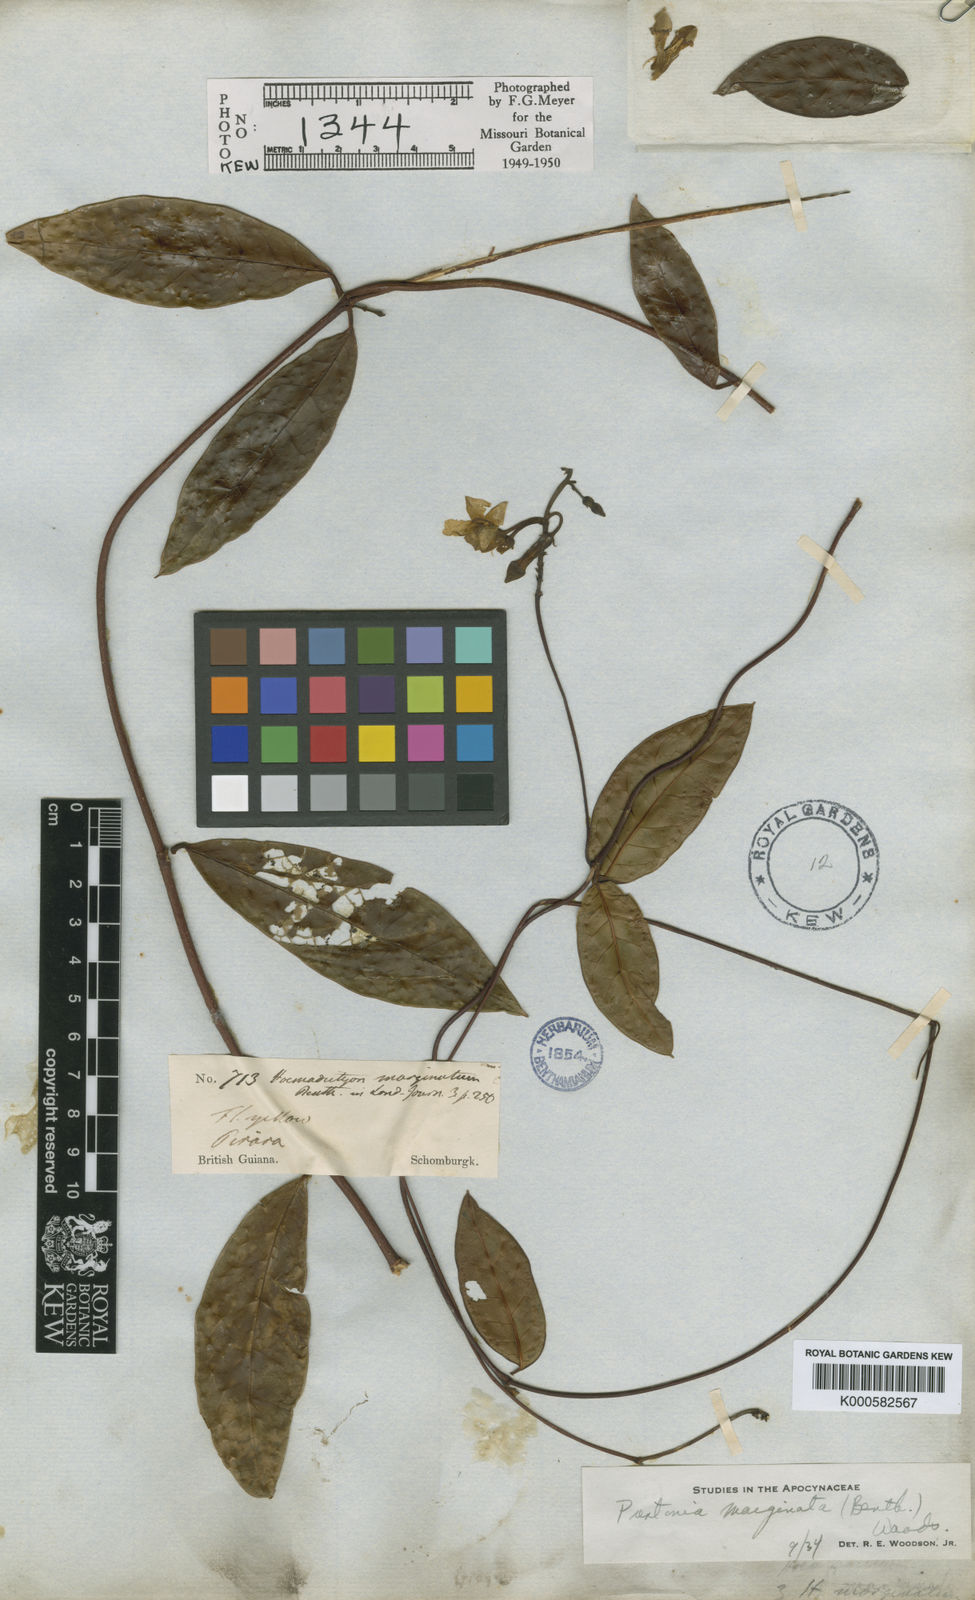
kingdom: Plantae
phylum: Tracheophyta
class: Magnoliopsida
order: Gentianales
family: Apocynaceae
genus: Prestonia
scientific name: Prestonia
